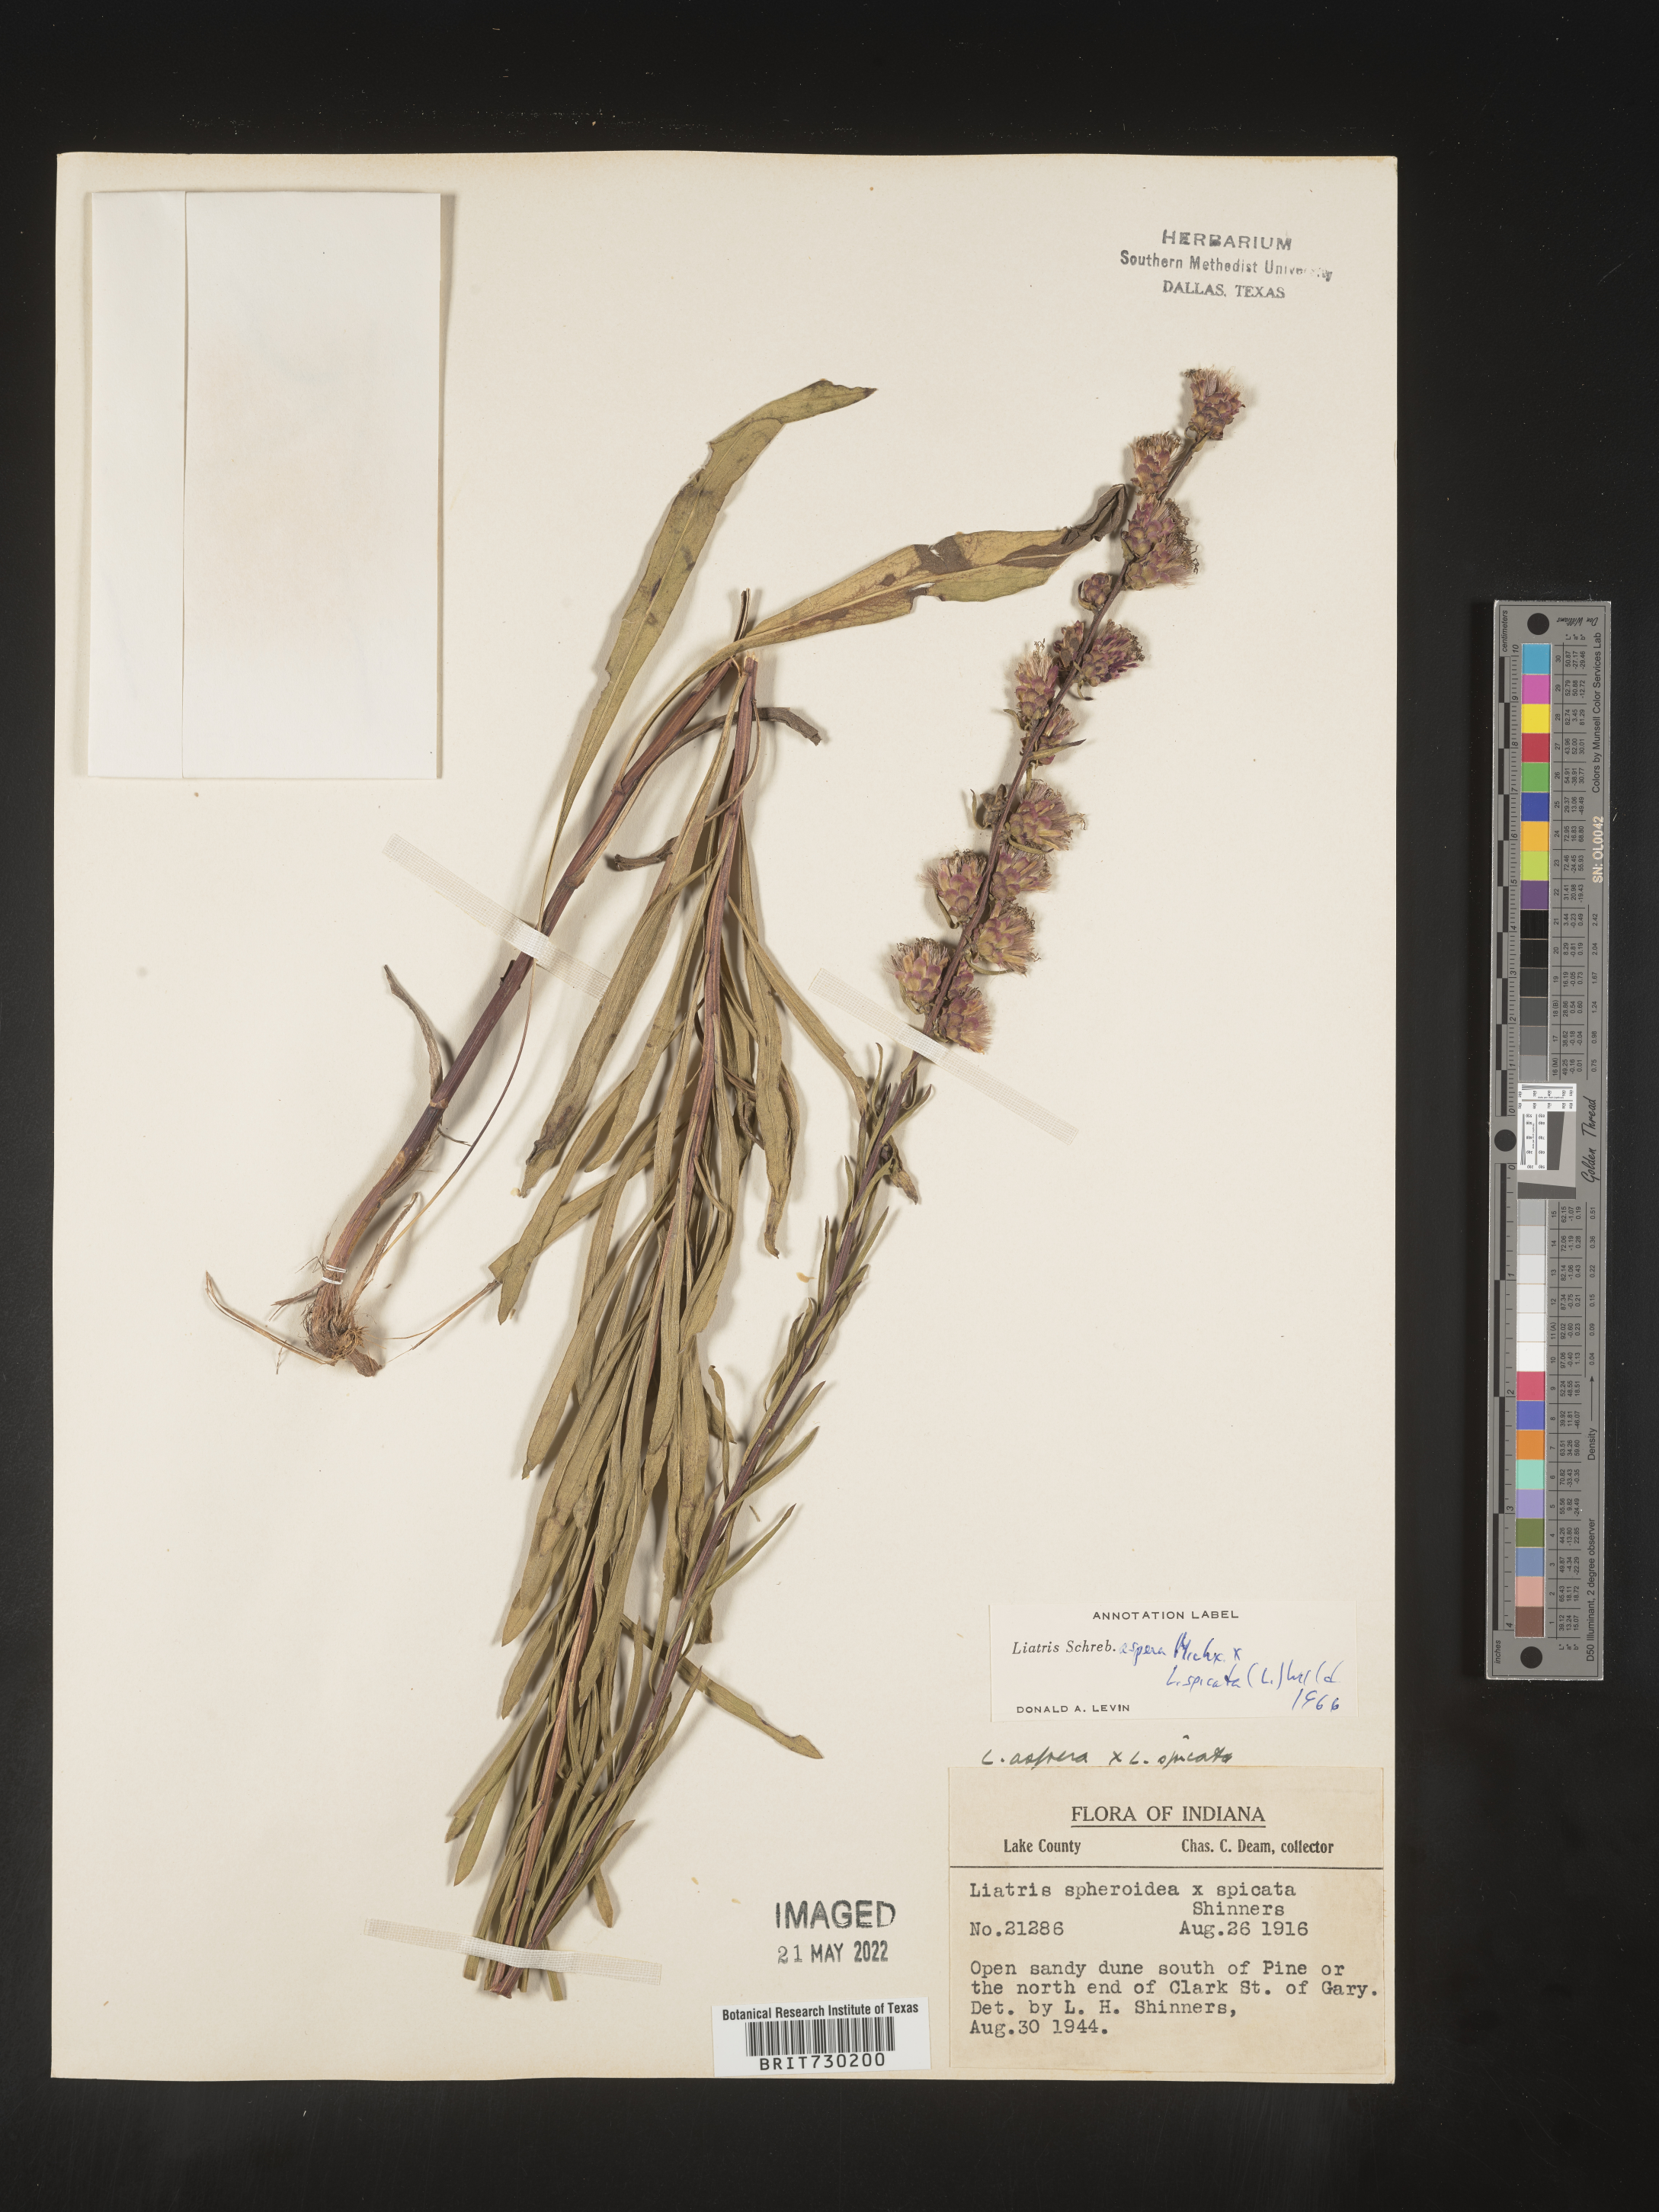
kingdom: Plantae
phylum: Tracheophyta
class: Magnoliopsida
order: Asterales
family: Asteraceae
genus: Liatris
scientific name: Liatris aspera
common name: Lacerate blazing-star
